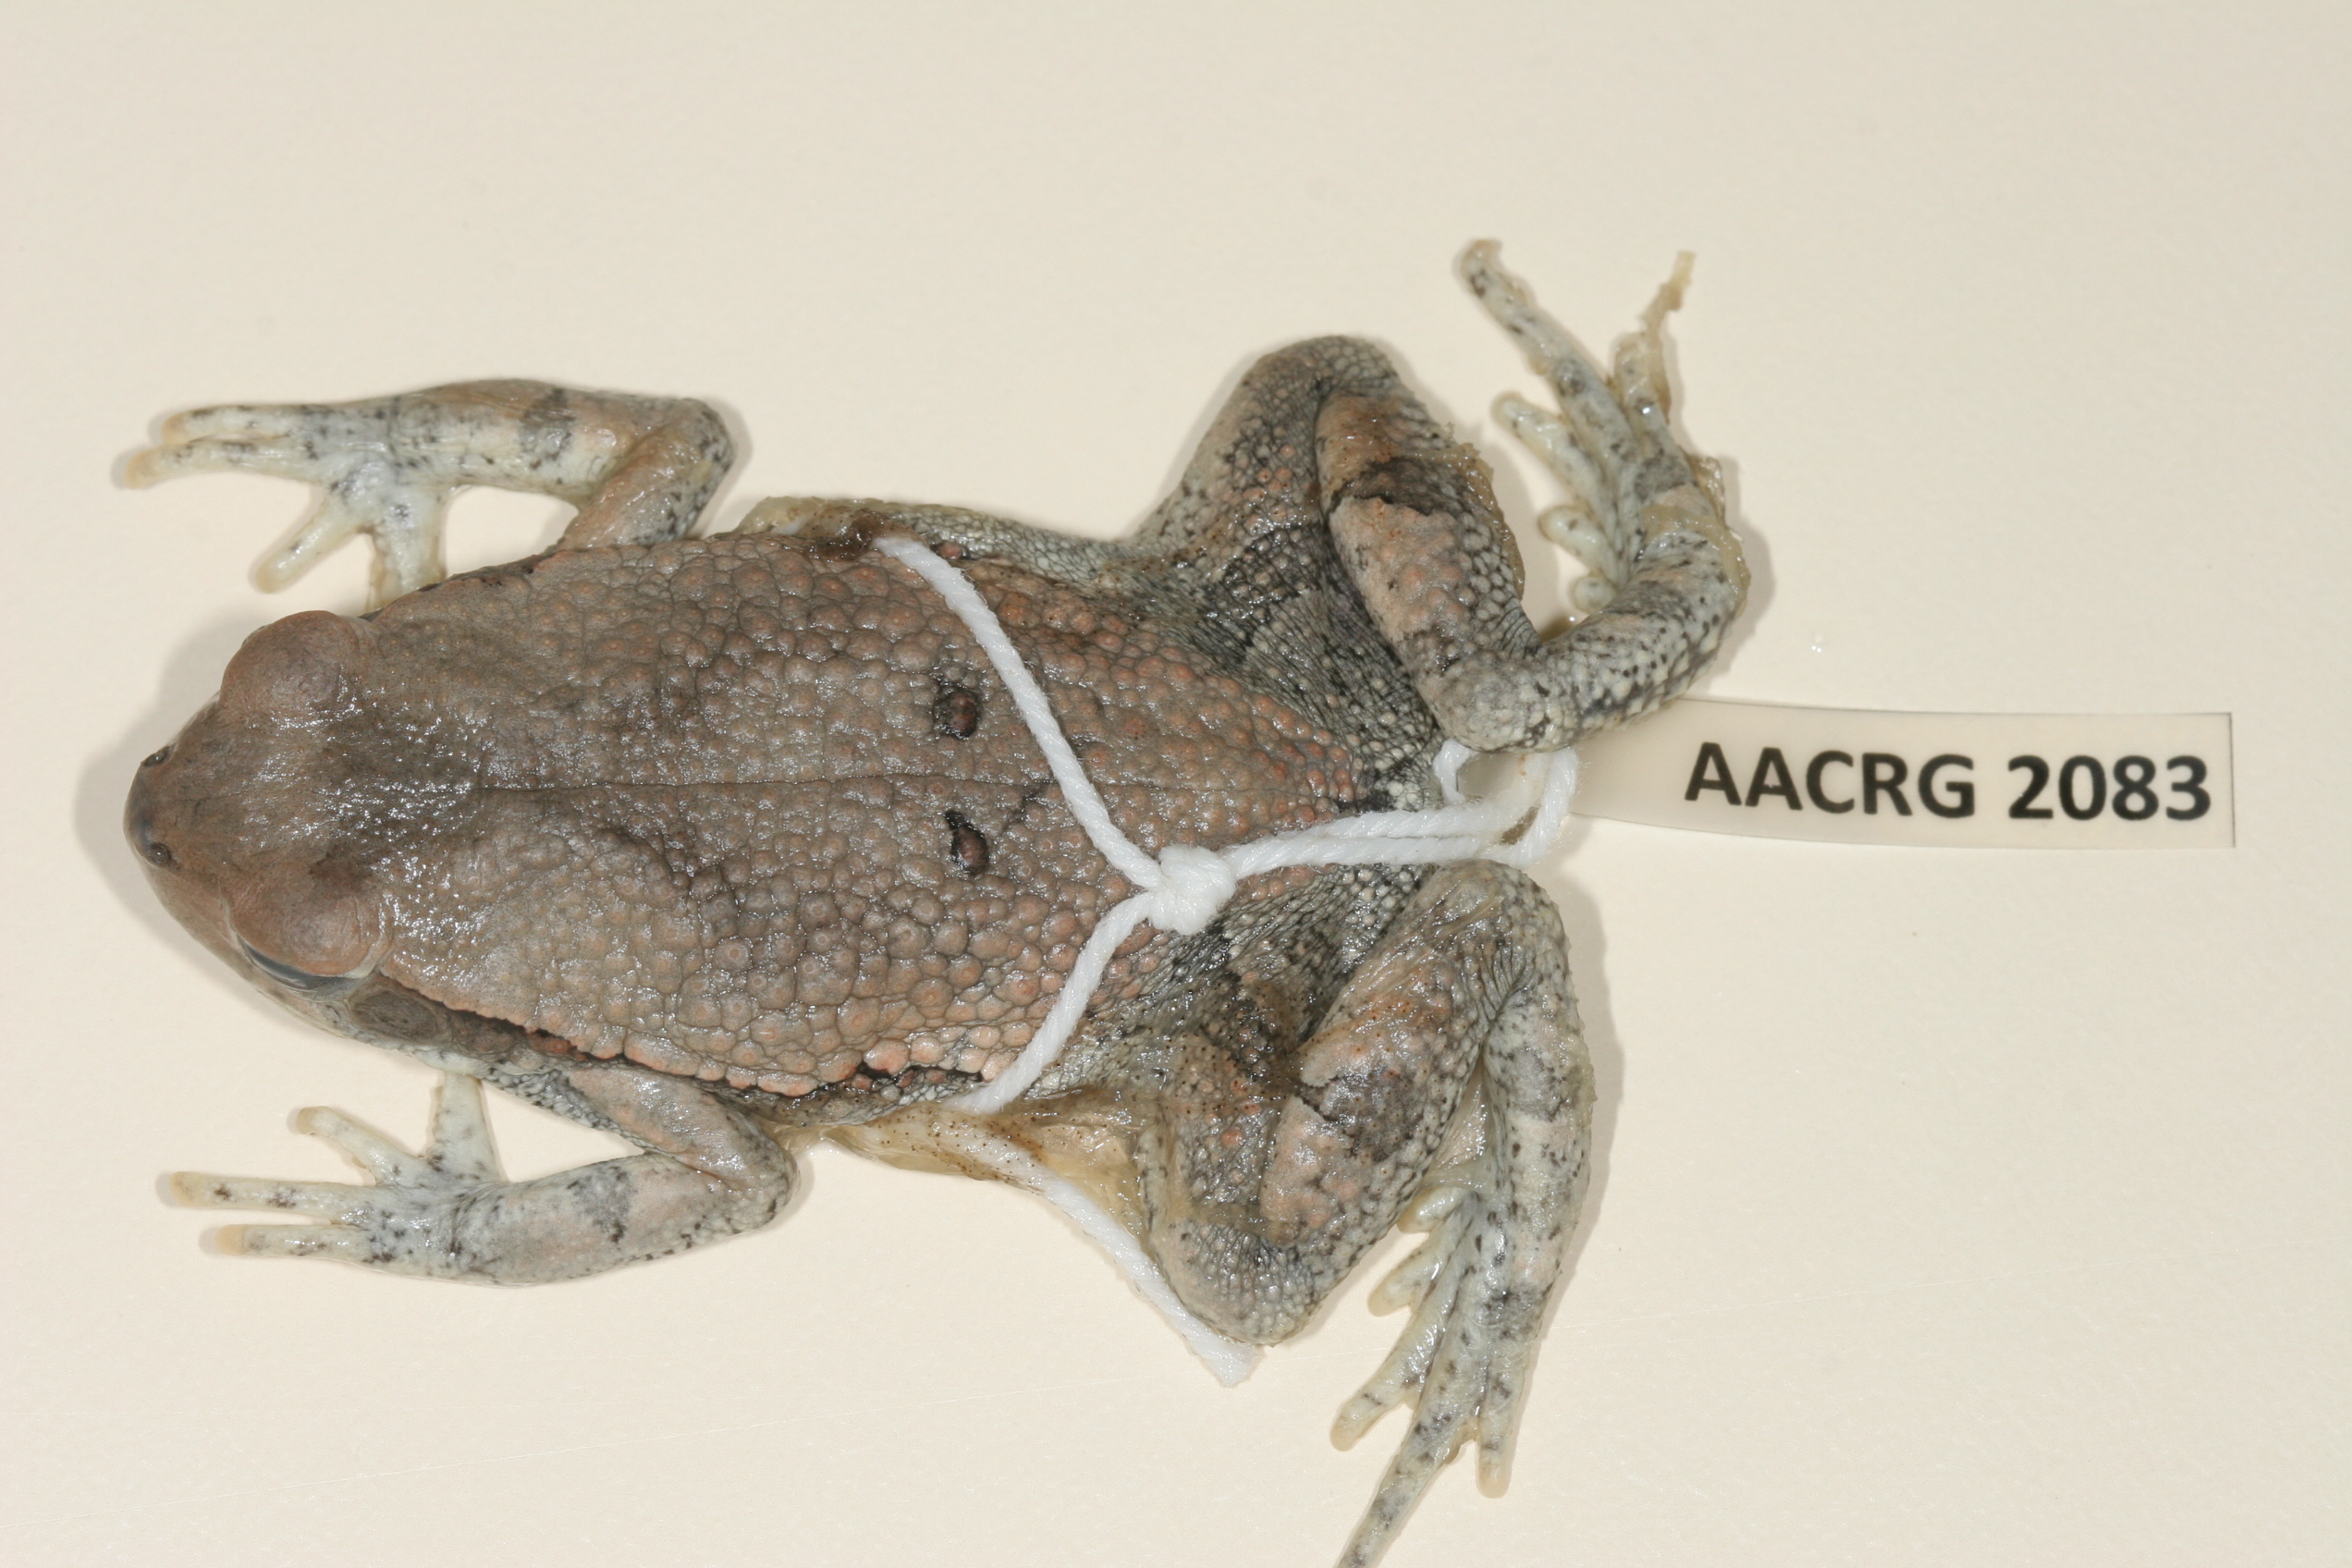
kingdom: Animalia
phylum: Chordata
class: Amphibia
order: Anura
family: Bufonidae
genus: Schismaderma
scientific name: Schismaderma carens
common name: African split-skin toad
